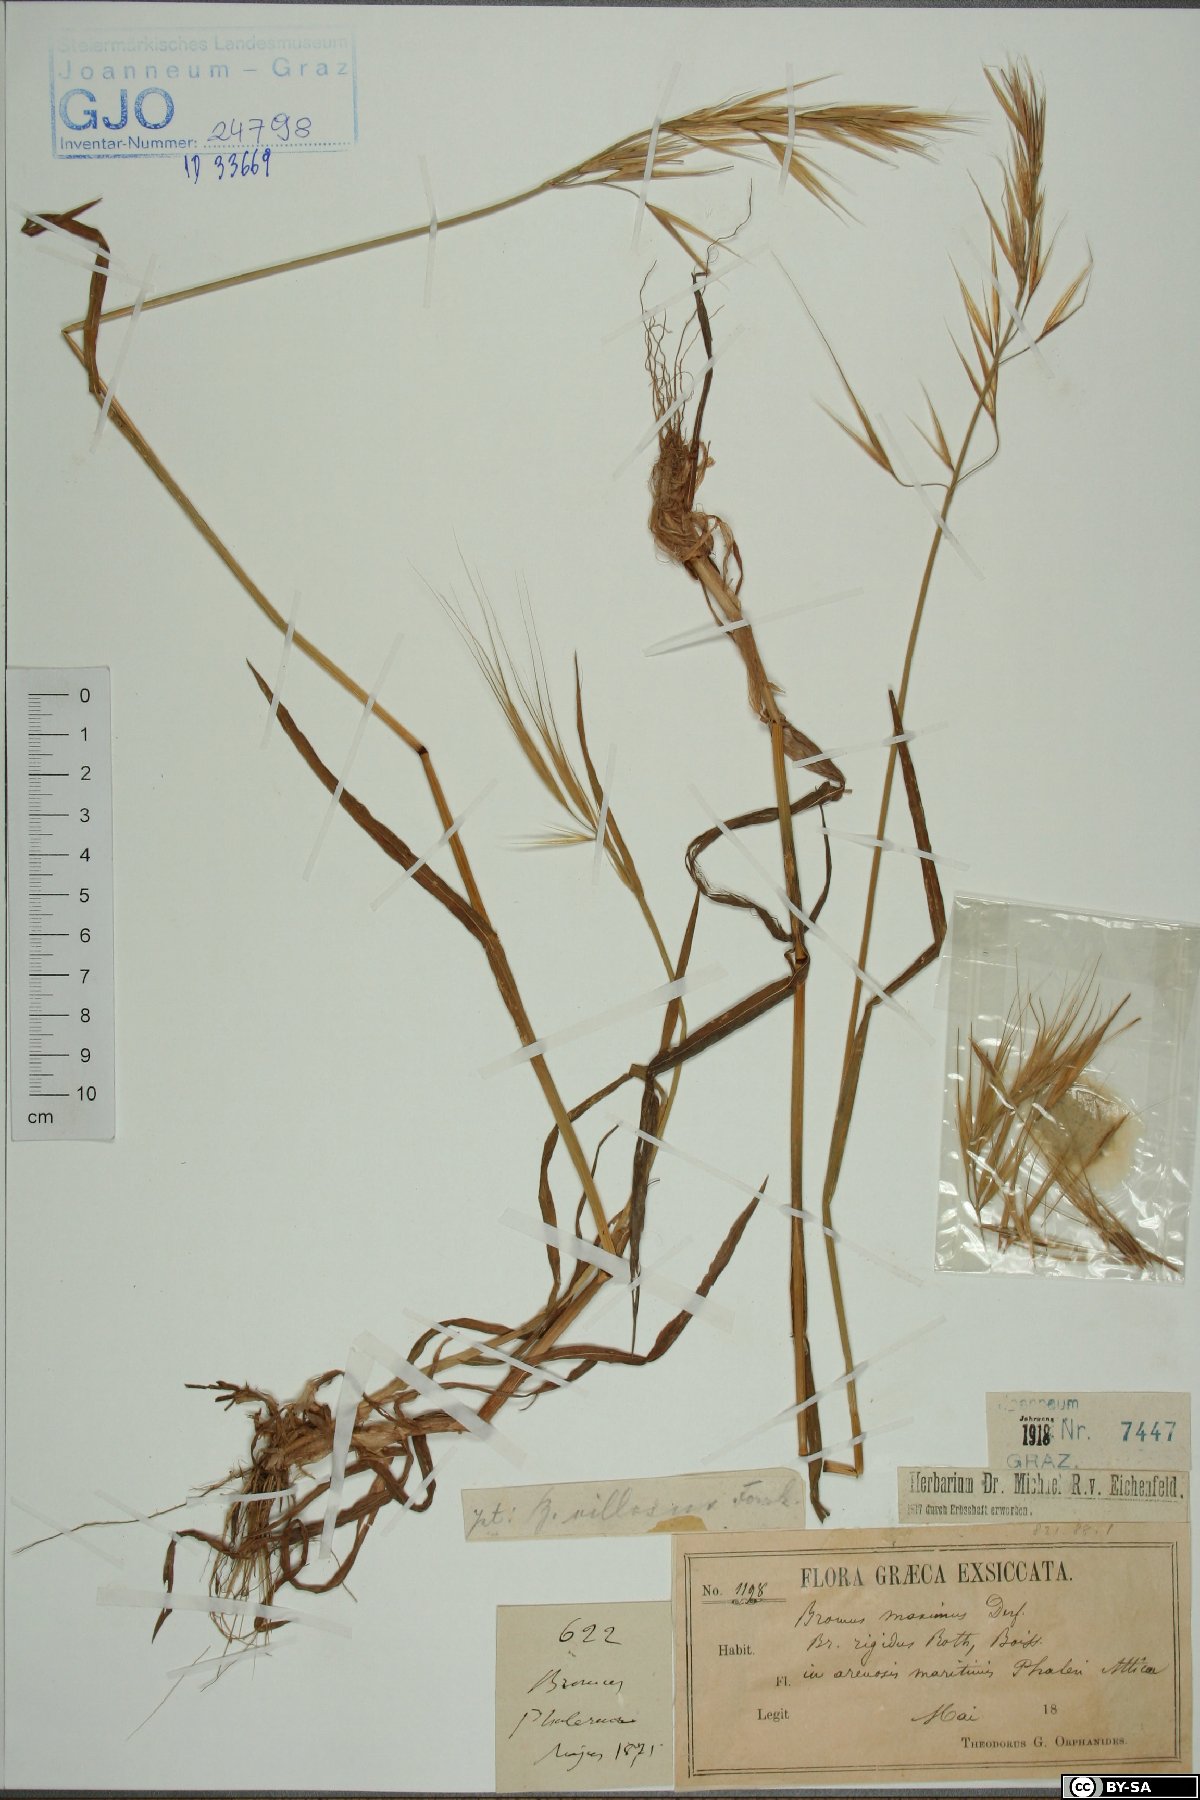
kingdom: Plantae
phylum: Tracheophyta
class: Liliopsida
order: Poales
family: Poaceae
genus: Bromus
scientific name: Bromus rigidus
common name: Ripgut brome
